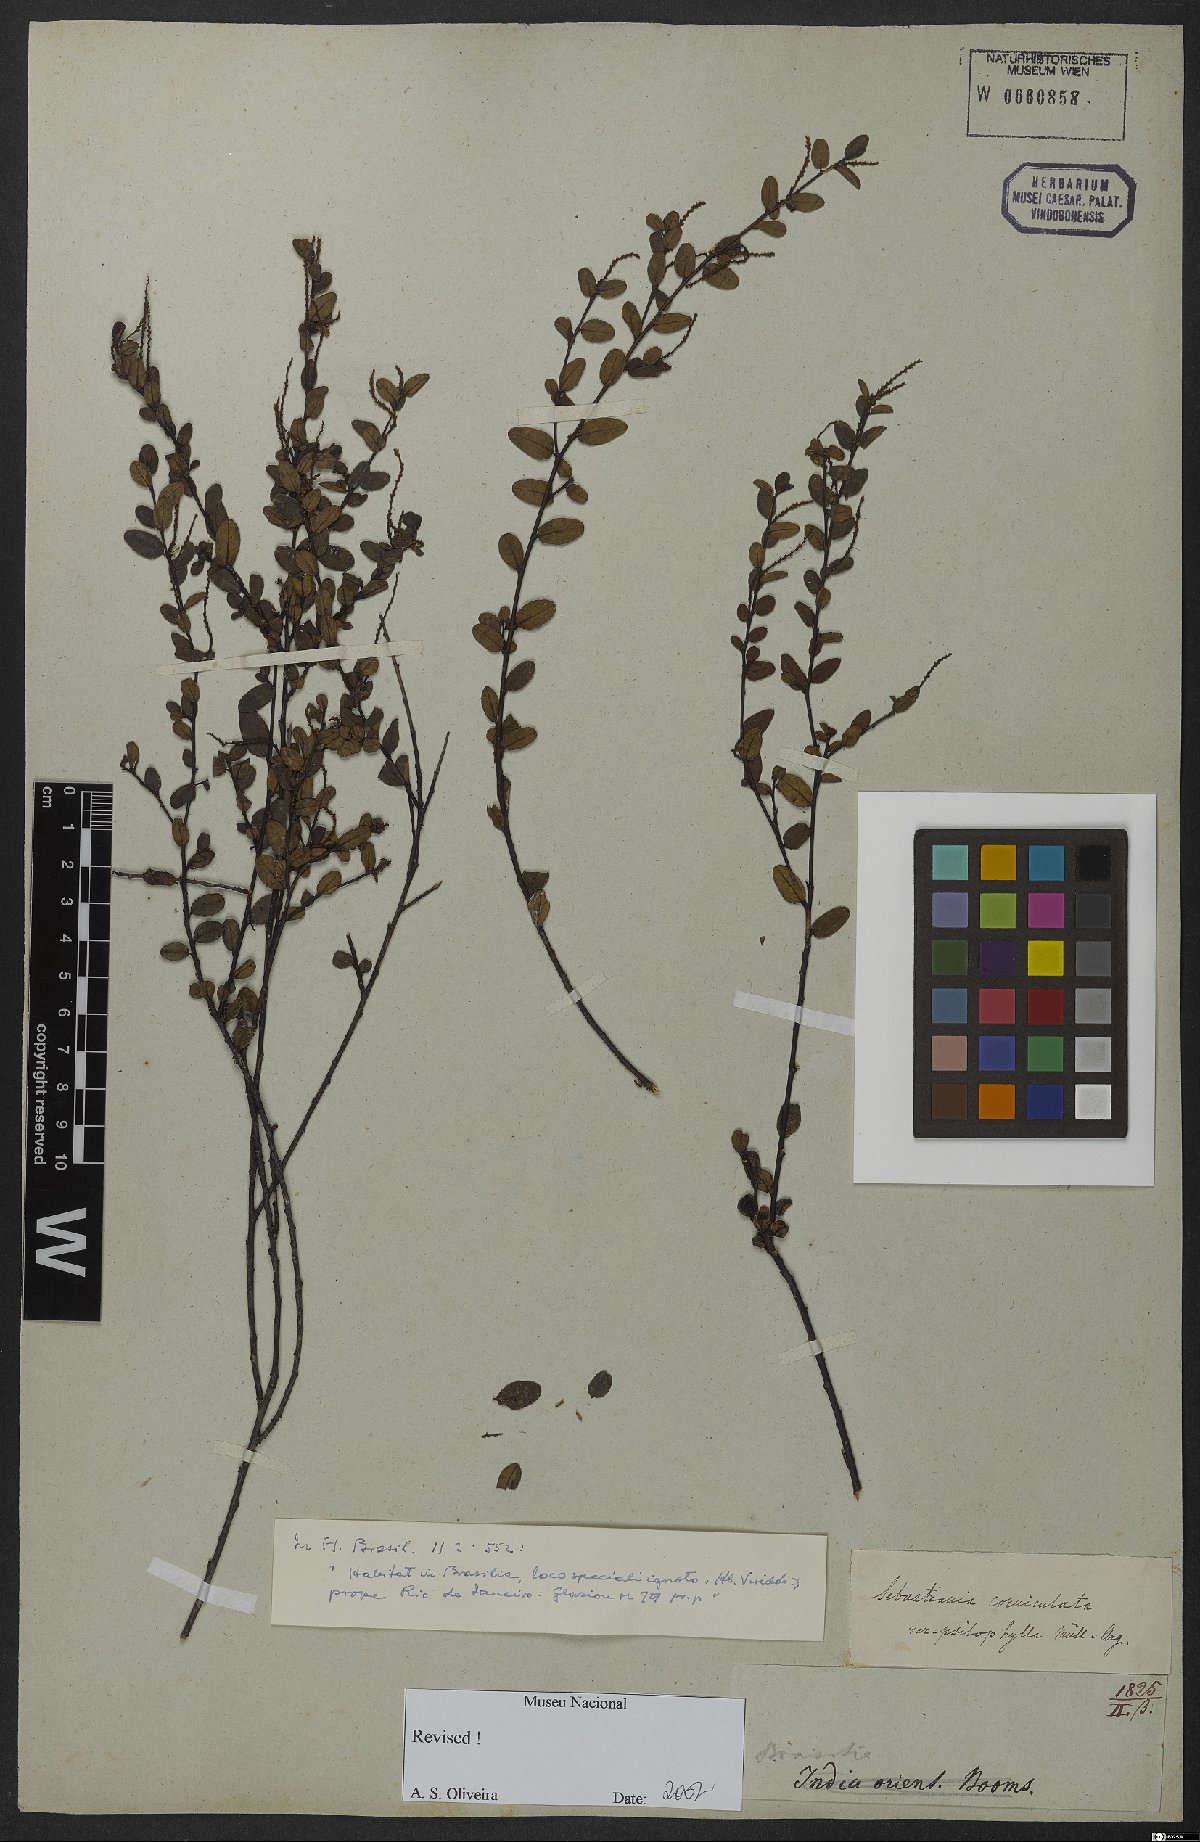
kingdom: Plantae
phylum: Tracheophyta
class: Magnoliopsida
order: Malpighiales
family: Euphorbiaceae
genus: Microstachys
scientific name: Microstachys corniculata
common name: Hato tejas
